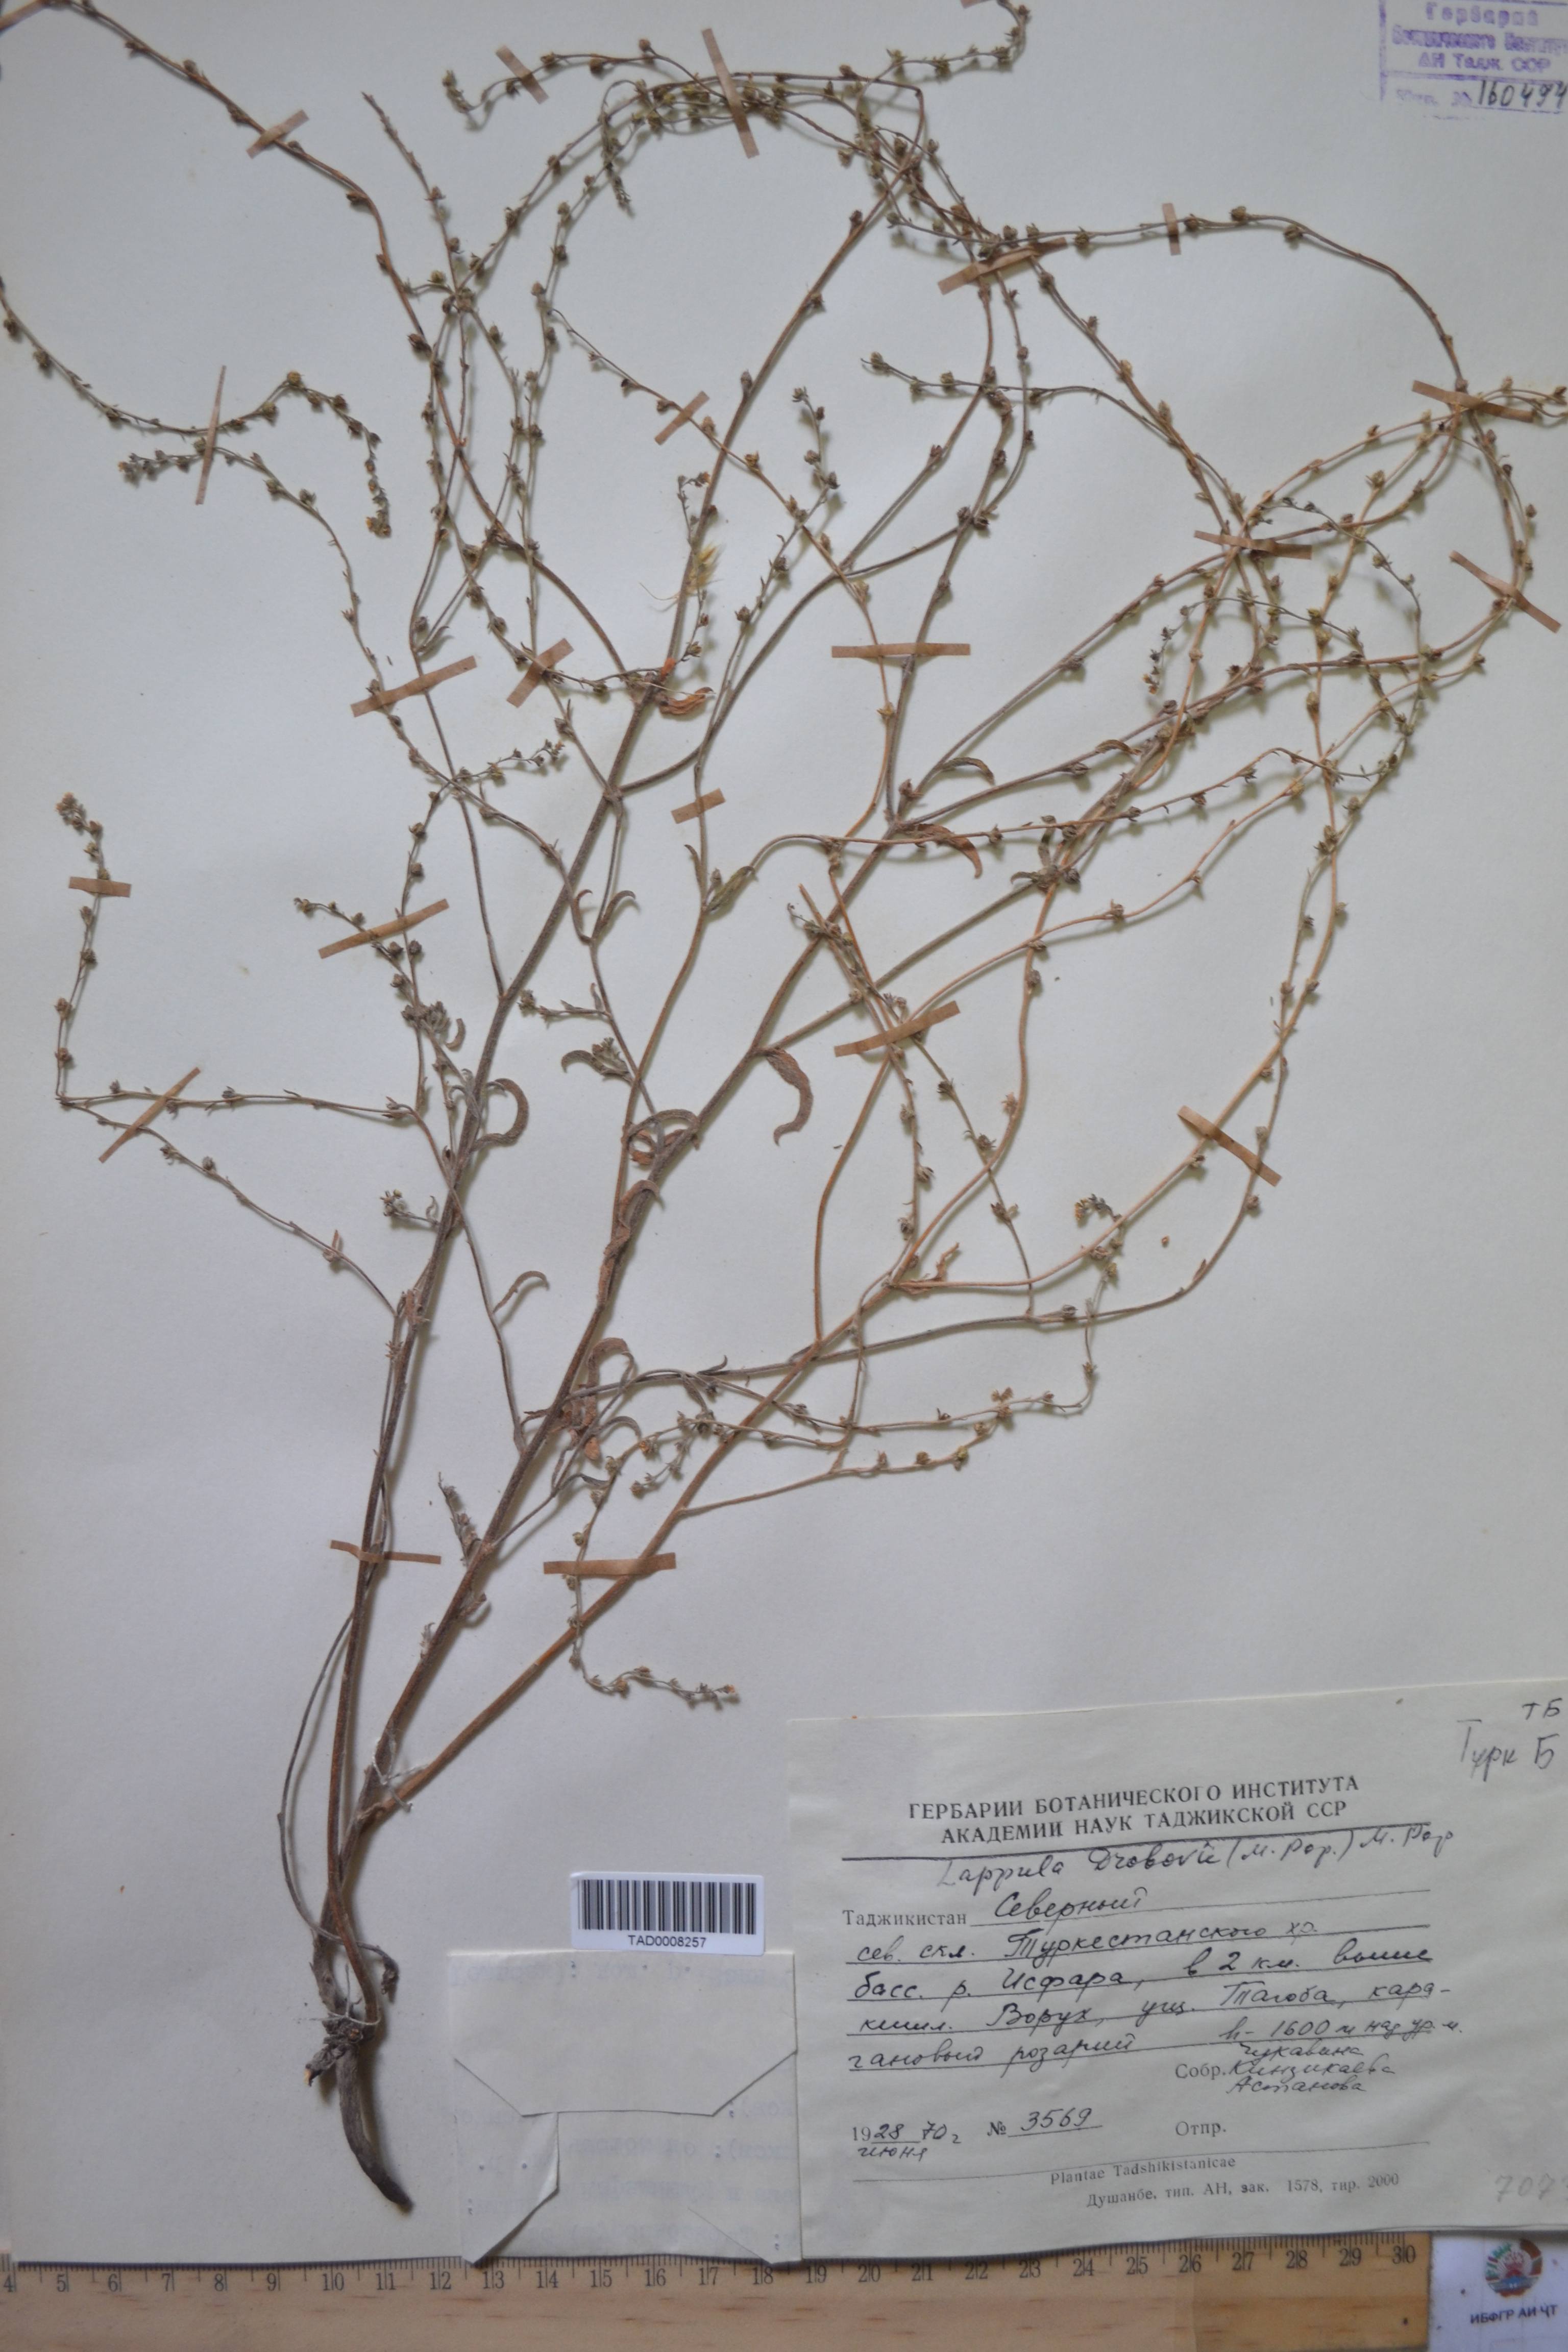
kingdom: Plantae
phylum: Tracheophyta
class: Magnoliopsida
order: Boraginales
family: Boraginaceae
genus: Rochelia
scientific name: Rochelia drobovii
